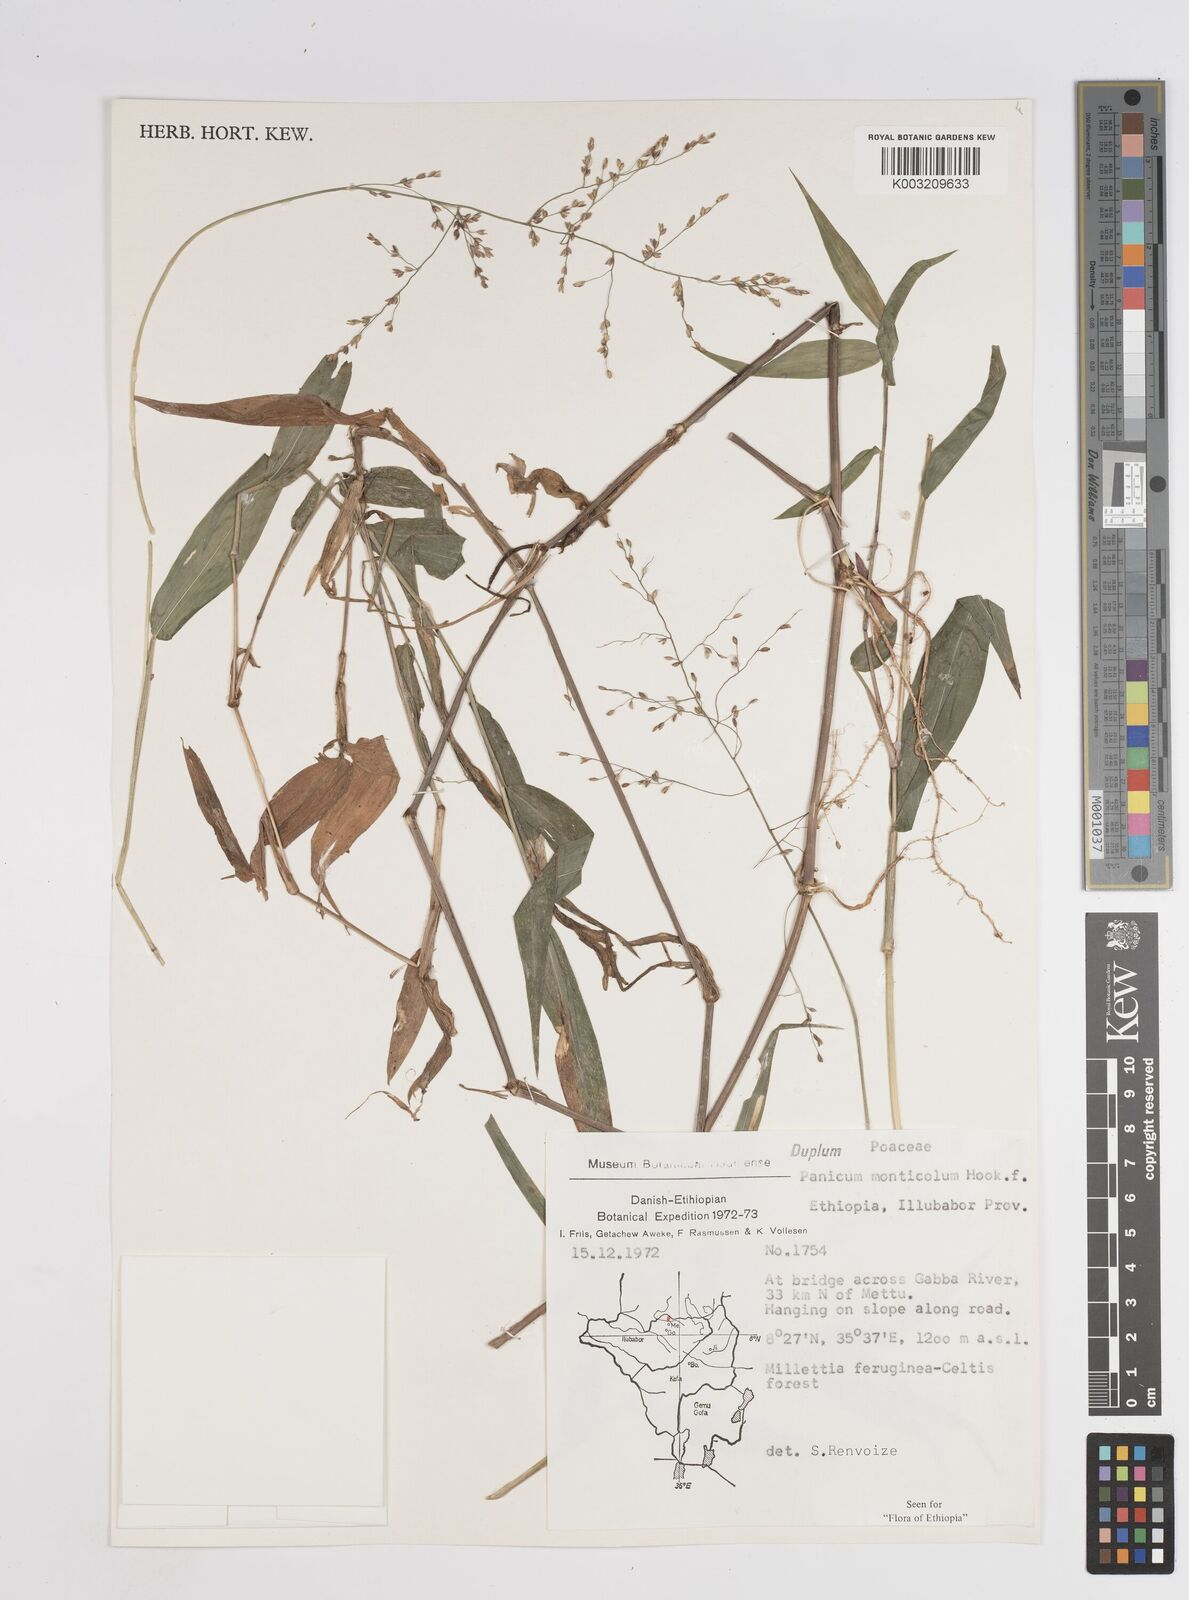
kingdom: Plantae
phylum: Tracheophyta
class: Liliopsida
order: Poales
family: Poaceae
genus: Panicum
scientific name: Panicum monticola
